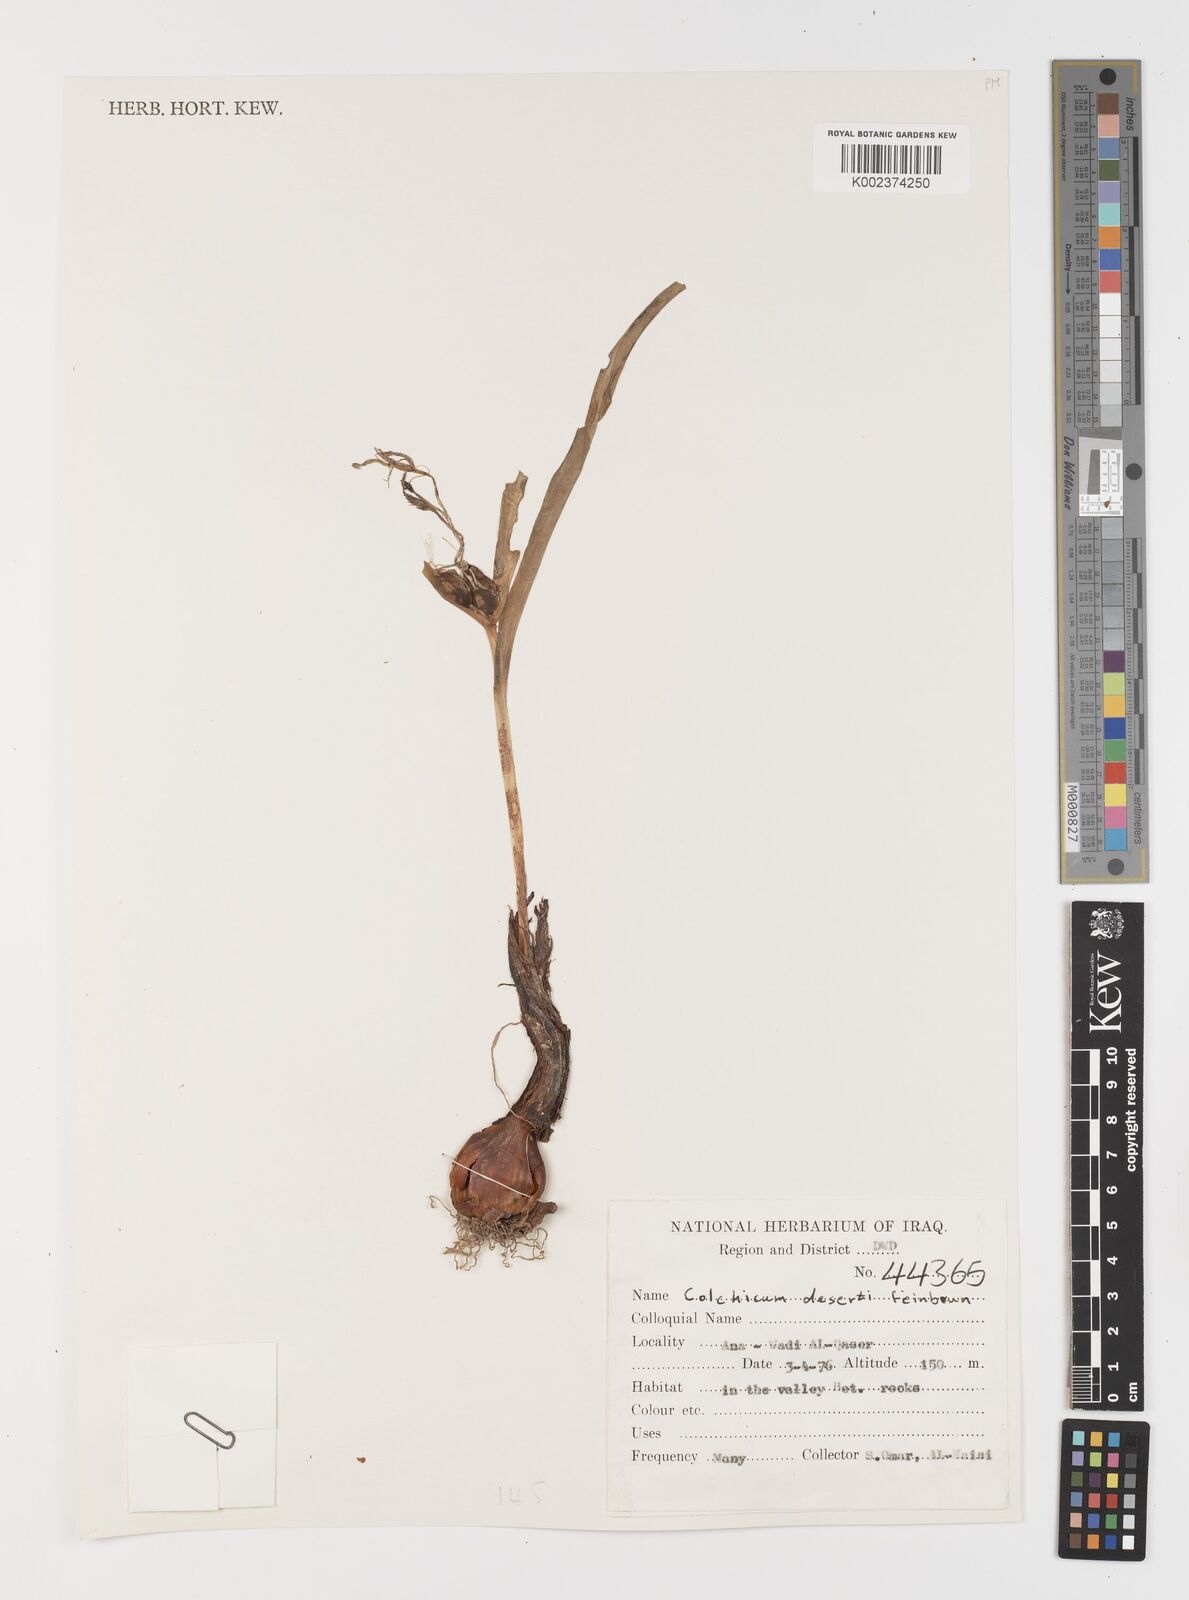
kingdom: Plantae
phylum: Tracheophyta
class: Liliopsida
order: Liliales
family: Colchicaceae
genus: Colchicum
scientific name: Colchicum schimperi
